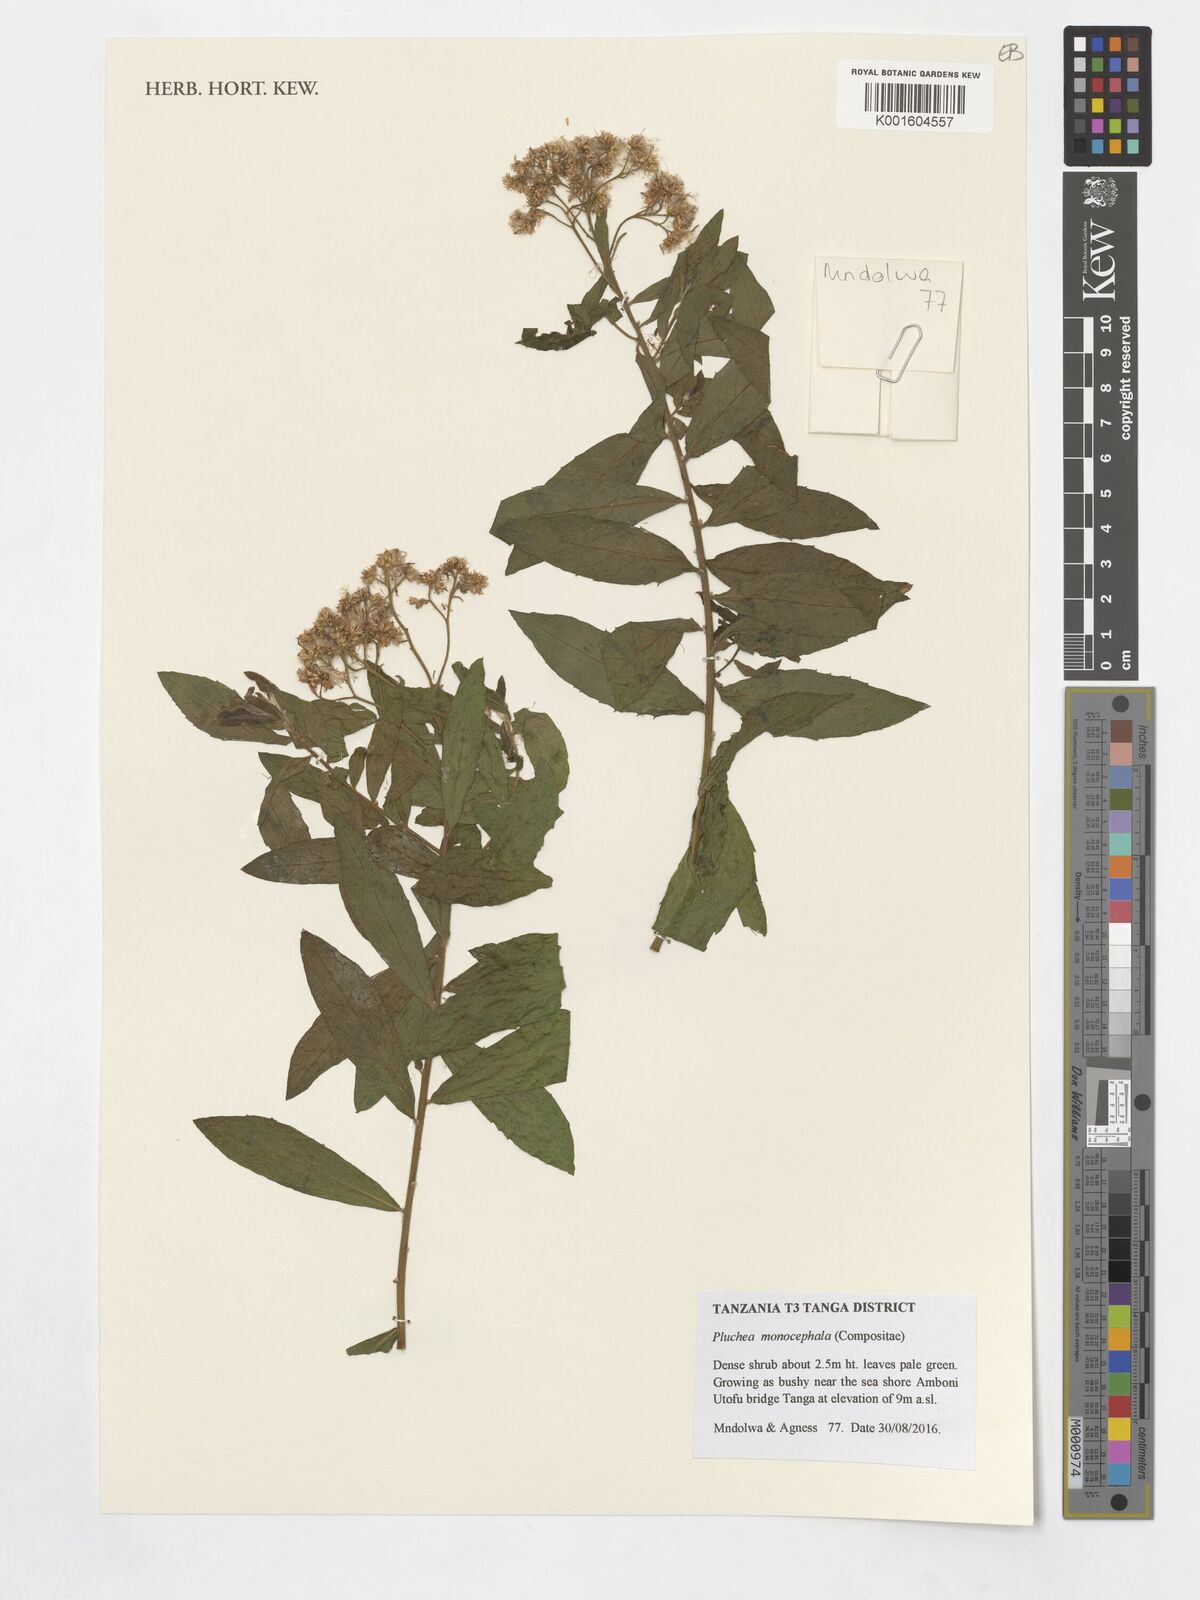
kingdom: Plantae
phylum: Tracheophyta
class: Magnoliopsida
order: Asterales
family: Asteraceae
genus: Porphyrostemma
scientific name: Porphyrostemma monocephala
